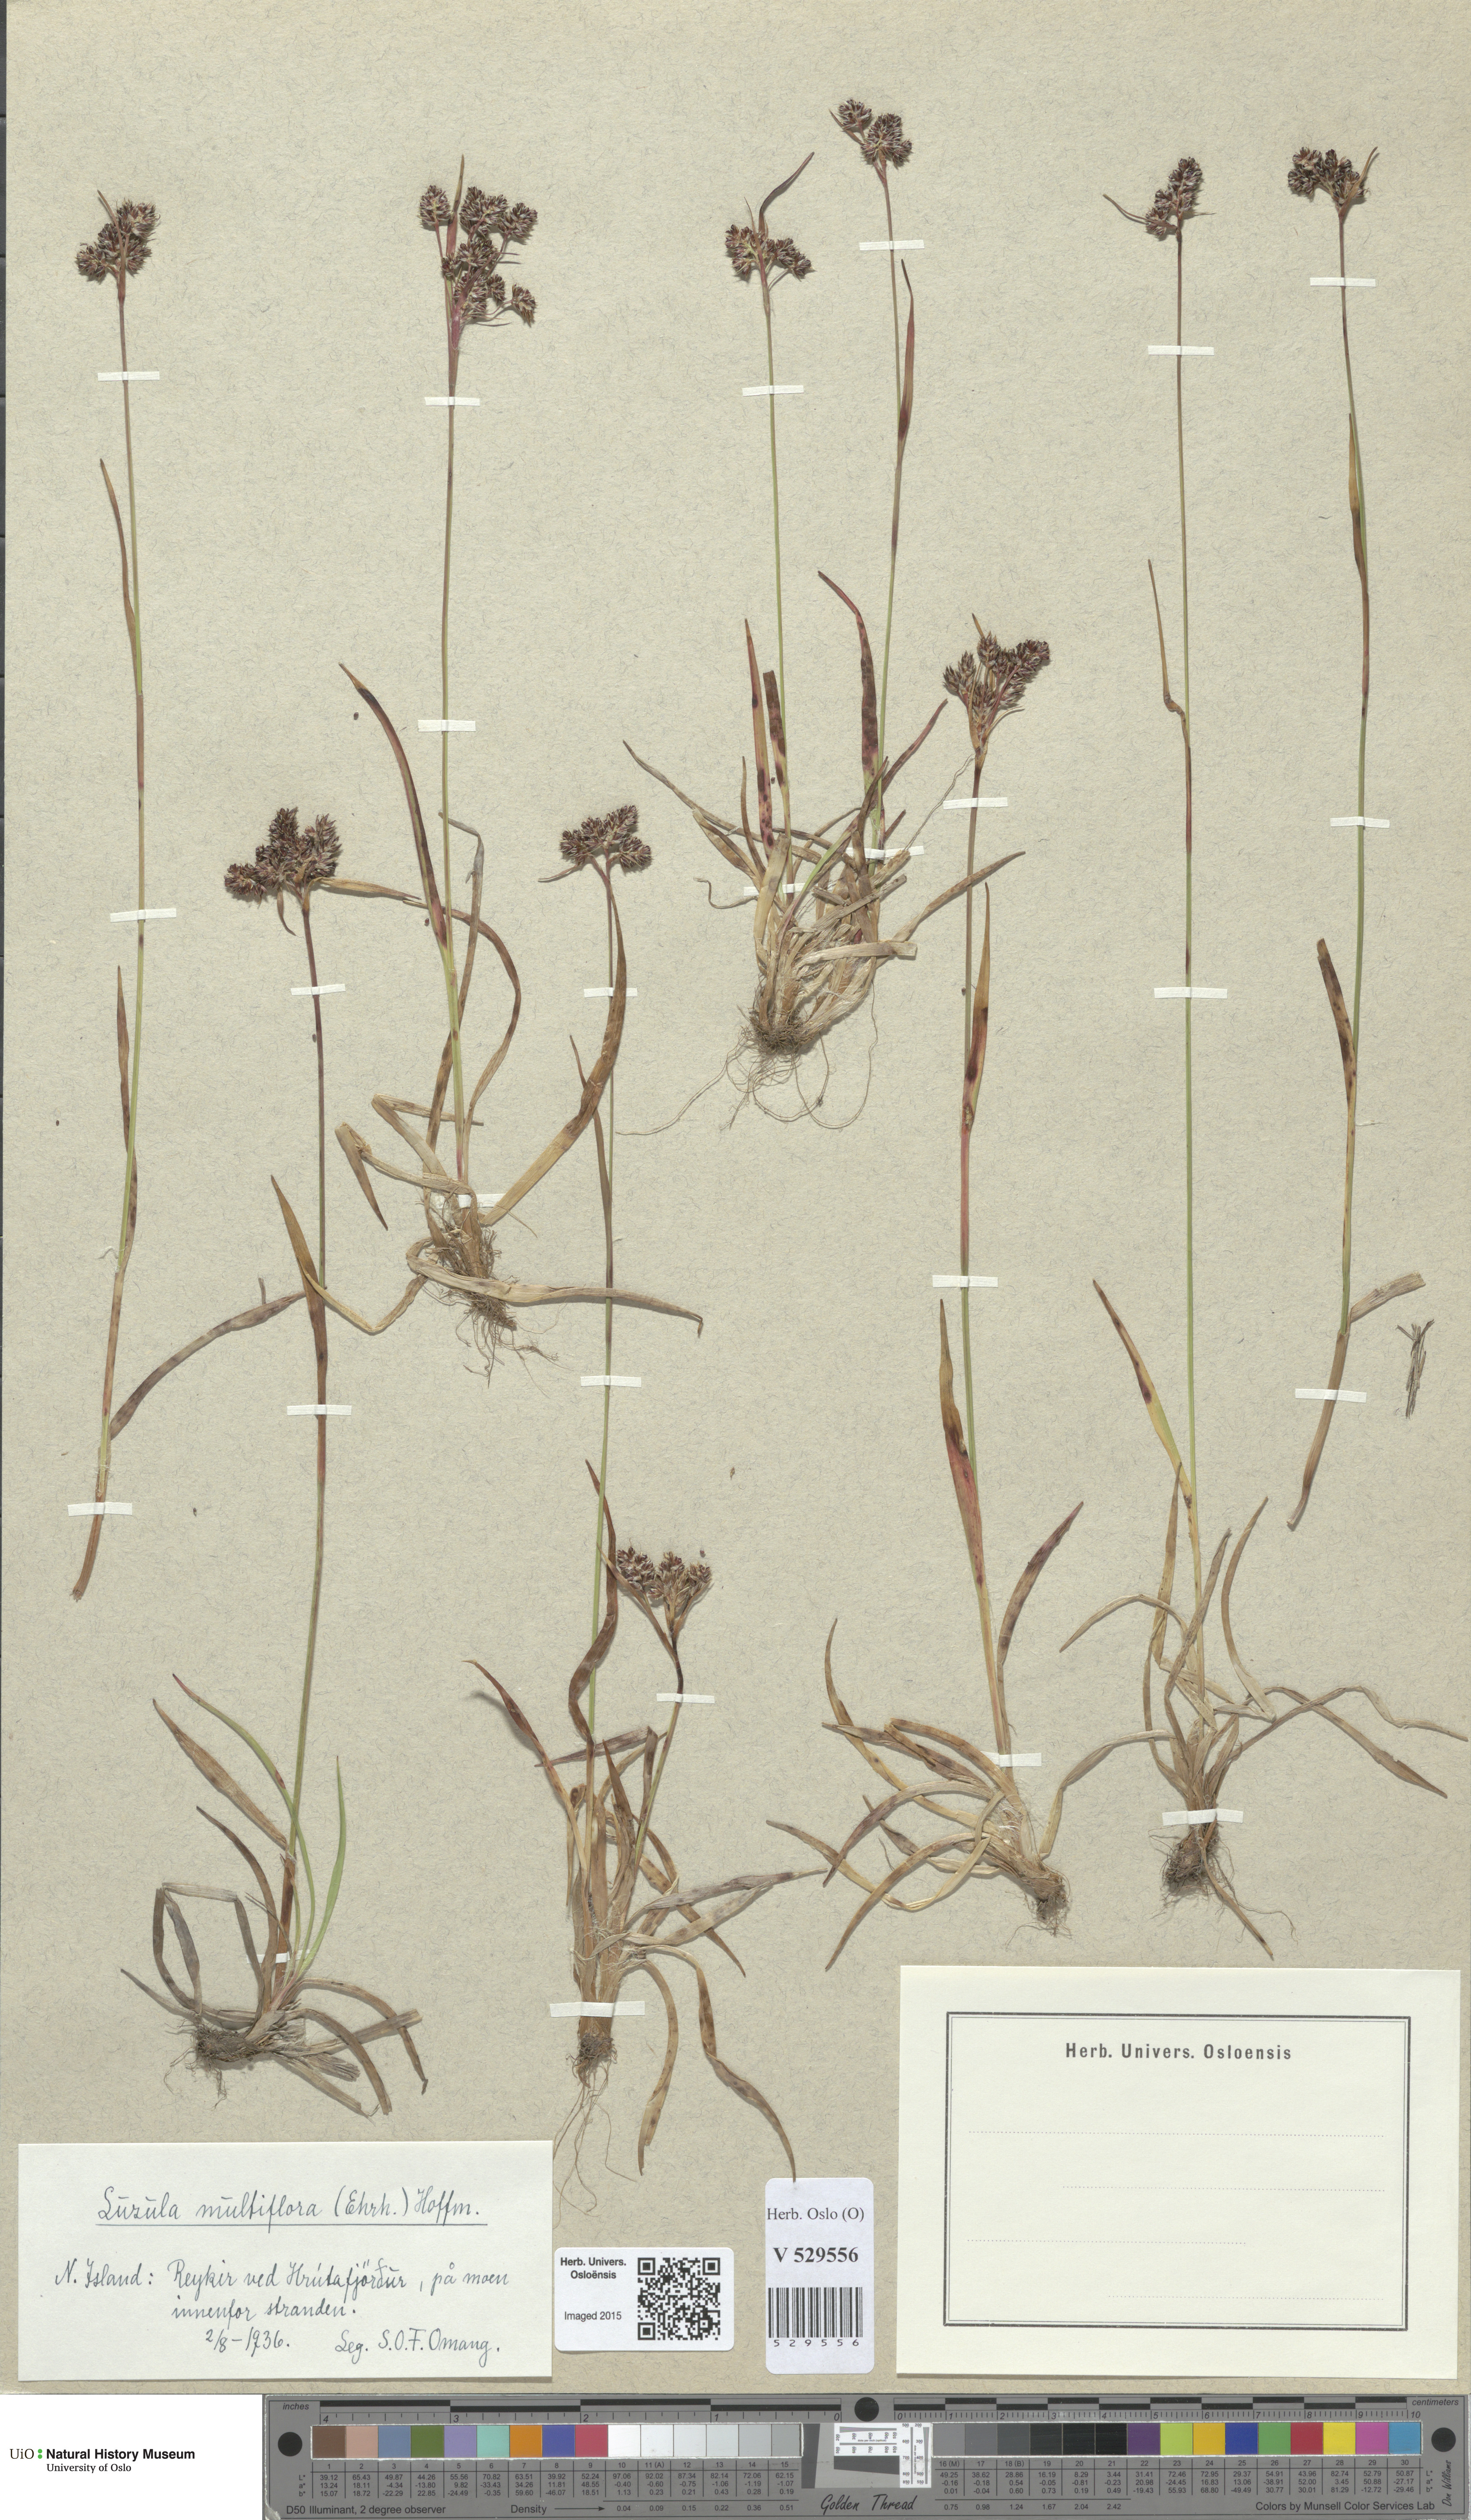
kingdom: Plantae
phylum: Tracheophyta
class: Liliopsida
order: Poales
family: Juncaceae
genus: Luzula
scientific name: Luzula multiflora
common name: Heath wood-rush
